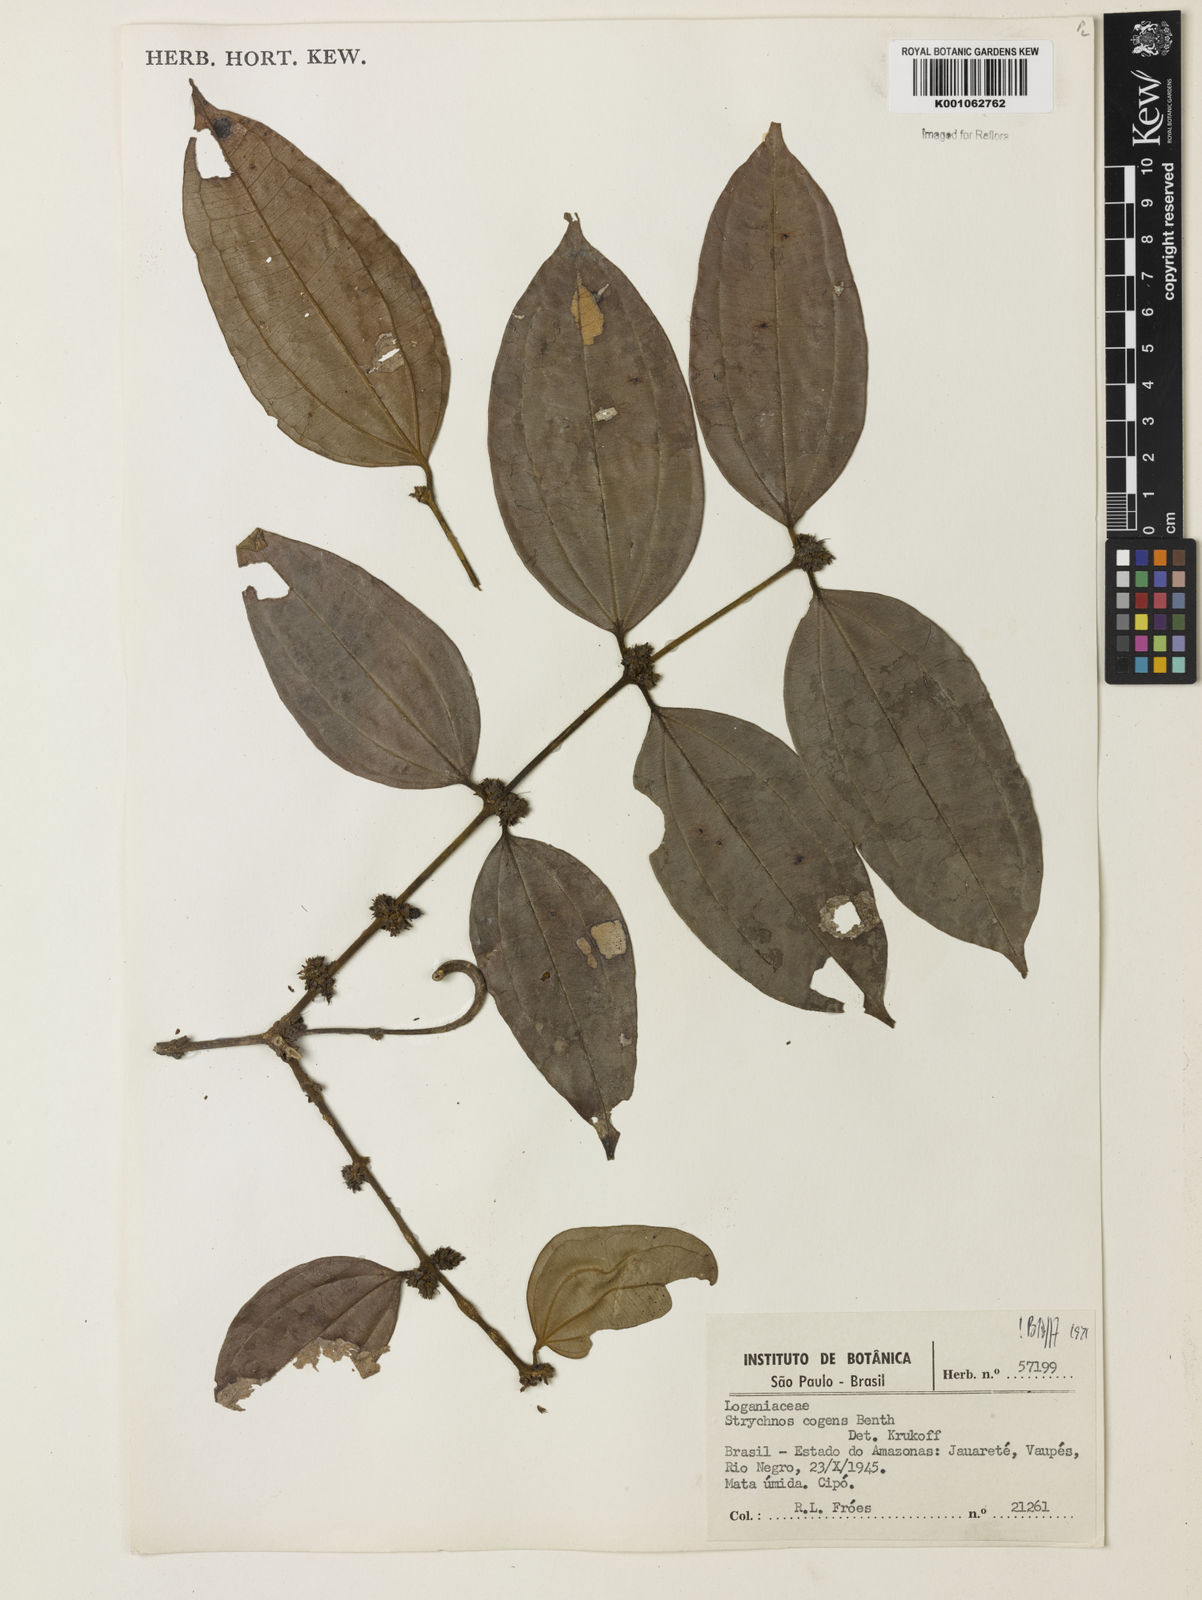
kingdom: Plantae
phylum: Tracheophyta
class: Magnoliopsida
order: Gentianales
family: Loganiaceae
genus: Strychnos
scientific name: Strychnos cogens
